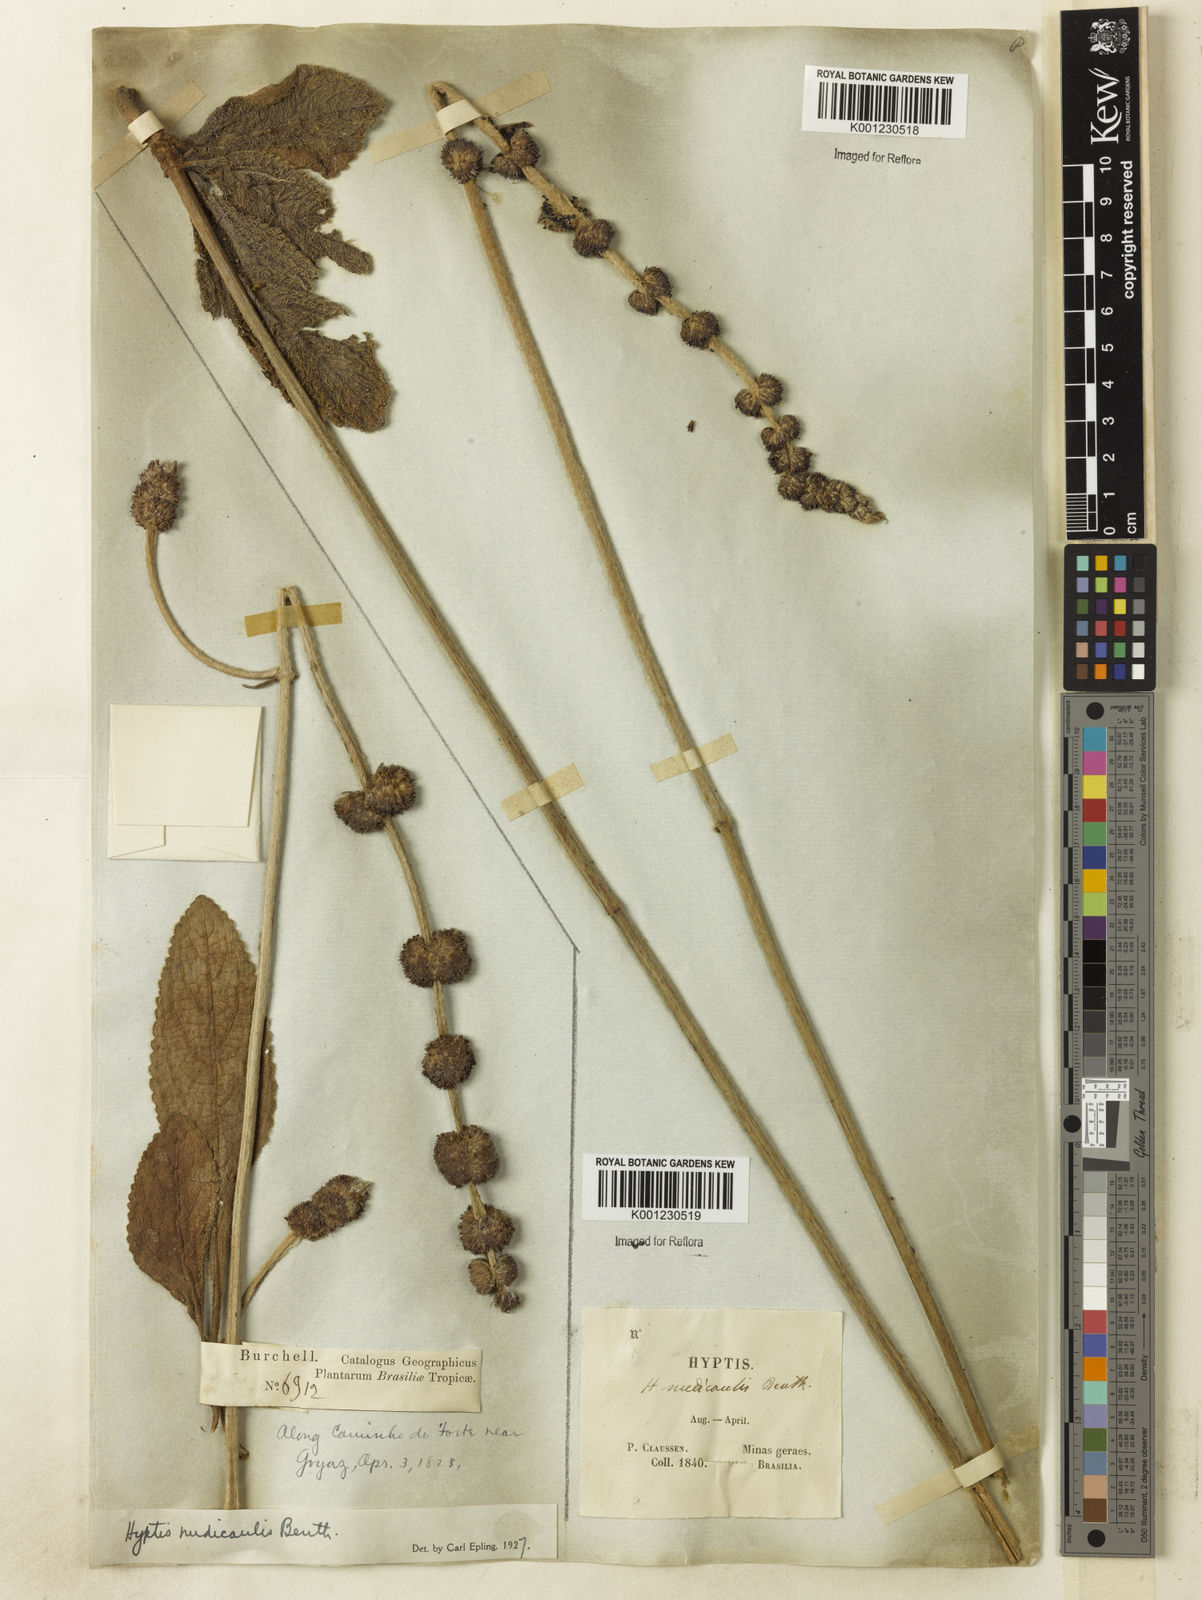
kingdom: Plantae
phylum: Tracheophyta
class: Magnoliopsida
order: Lamiales
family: Lamiaceae
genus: Hyptis
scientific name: Hyptis nudicaulis
